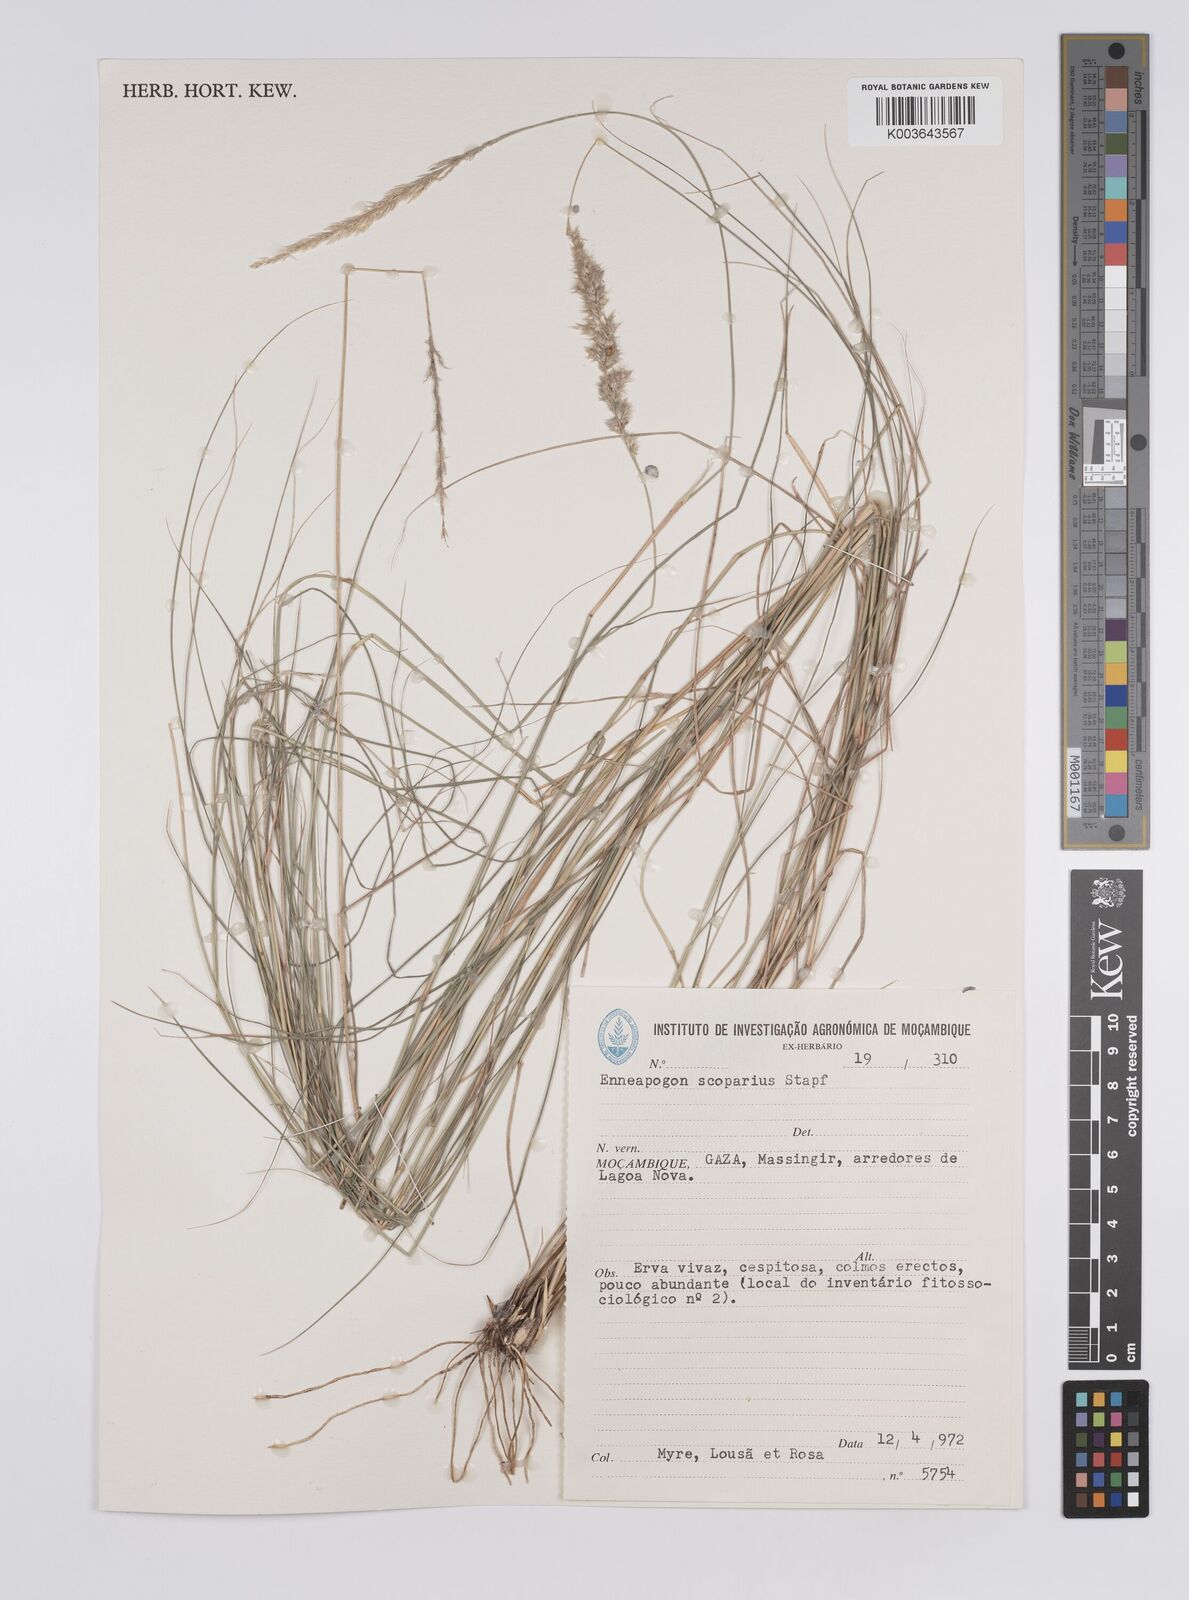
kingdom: Plantae
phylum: Tracheophyta
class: Liliopsida
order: Poales
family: Poaceae
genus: Enneapogon
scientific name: Enneapogon scoparius
